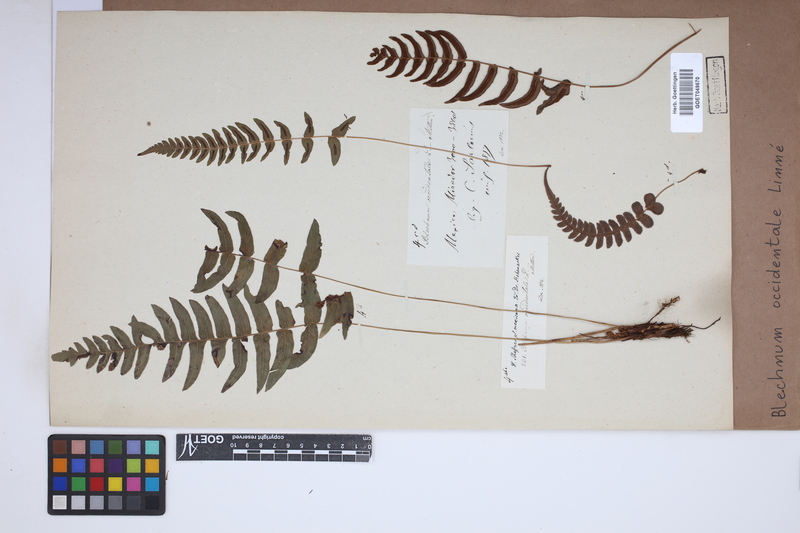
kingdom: Plantae
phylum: Tracheophyta
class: Polypodiopsida
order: Polypodiales
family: Blechnaceae
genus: Blechnum
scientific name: Blechnum occidentale
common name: Hammock fern
